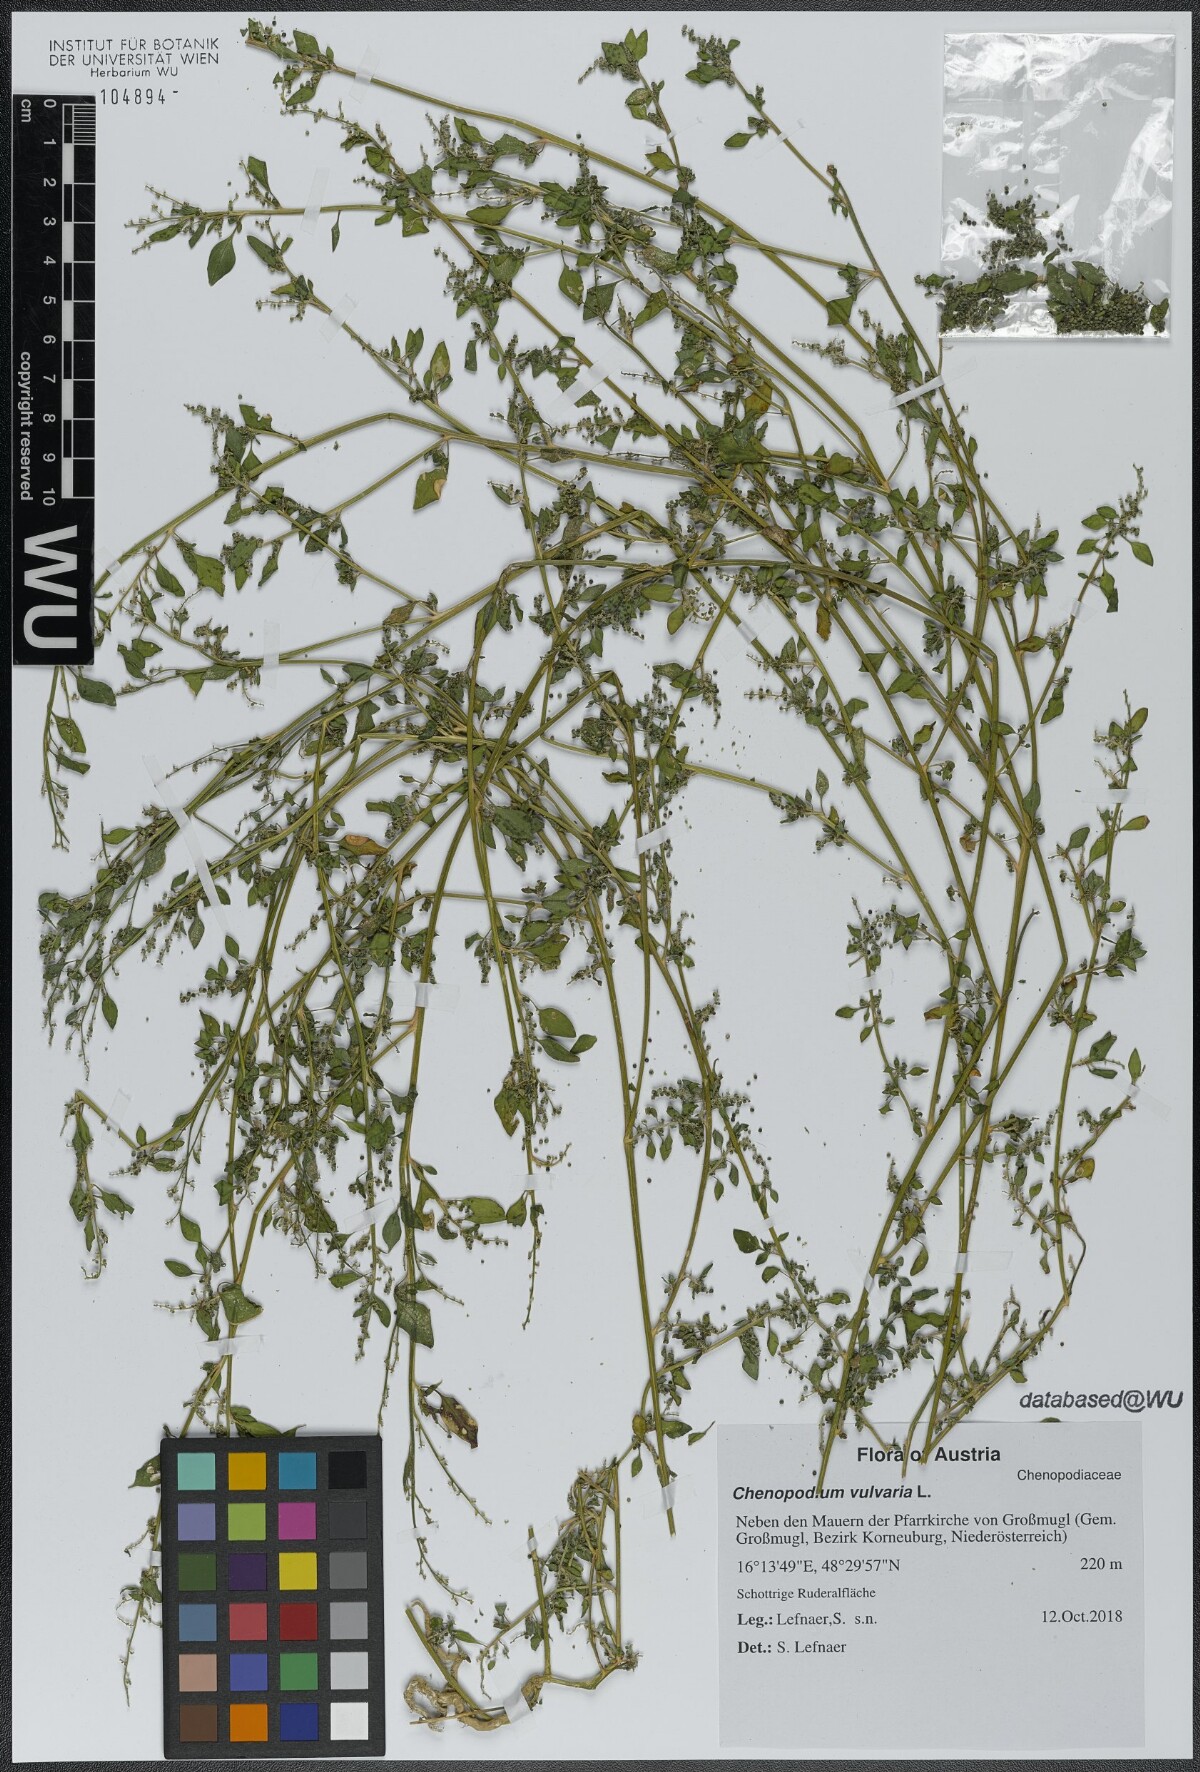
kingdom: Plantae
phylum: Tracheophyta
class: Magnoliopsida
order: Caryophyllales
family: Amaranthaceae
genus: Chenopodium
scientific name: Chenopodium vulvaria
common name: Stinking goosefoot
